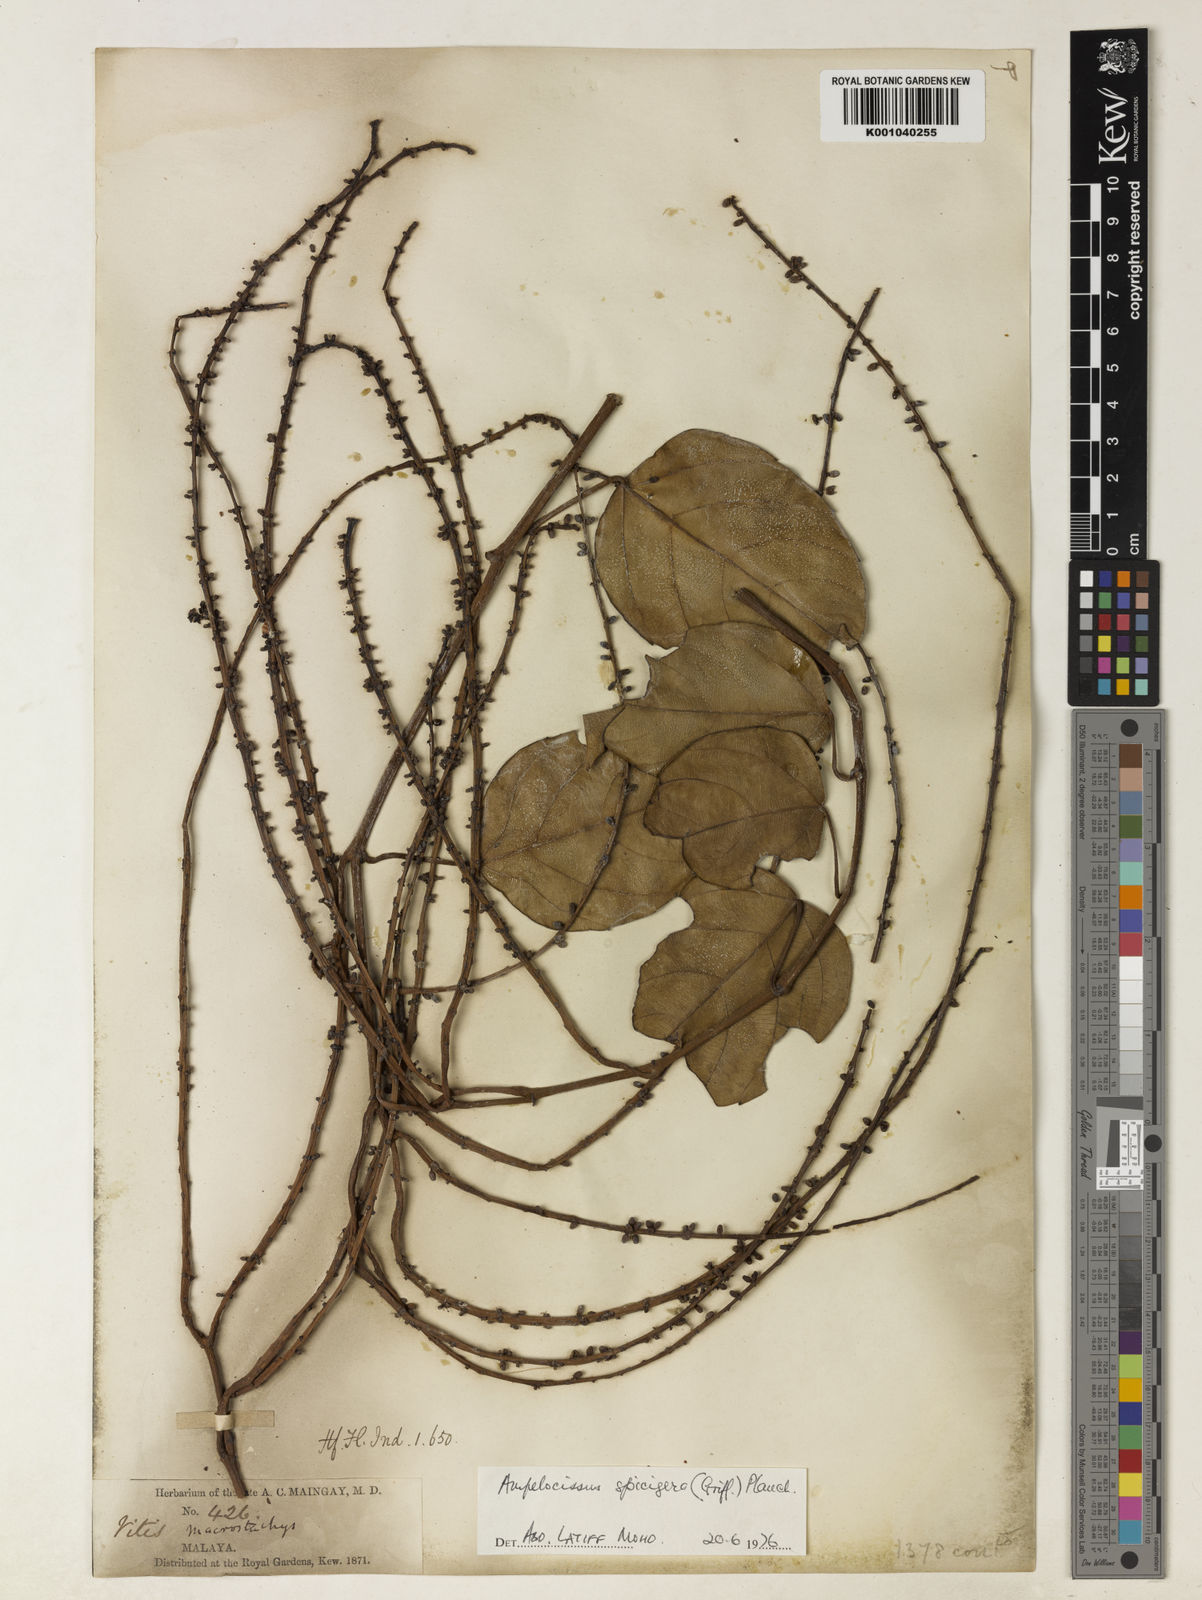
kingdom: Plantae
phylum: Tracheophyta
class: Magnoliopsida
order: Vitales
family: Vitaceae
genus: Nothocissus
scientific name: Nothocissus spicifera
